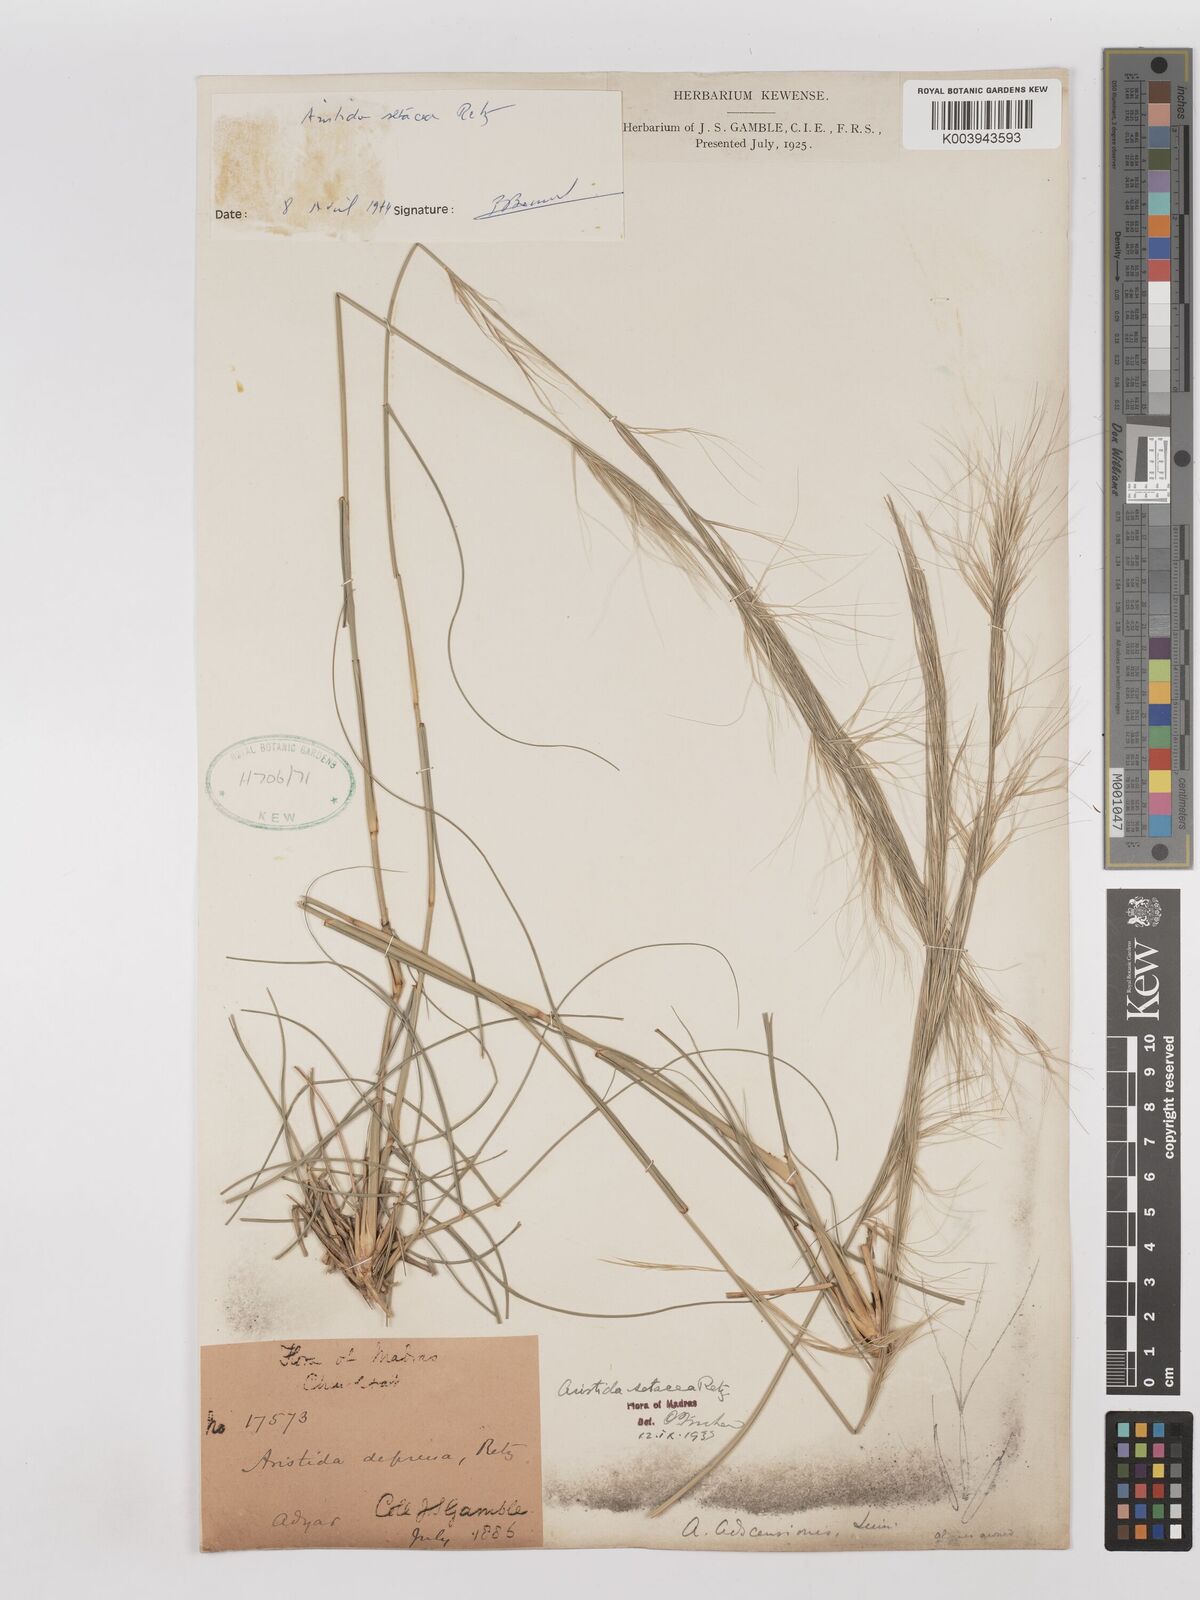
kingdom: Plantae
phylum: Tracheophyta
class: Liliopsida
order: Poales
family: Poaceae
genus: Aristida
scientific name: Aristida setacea
